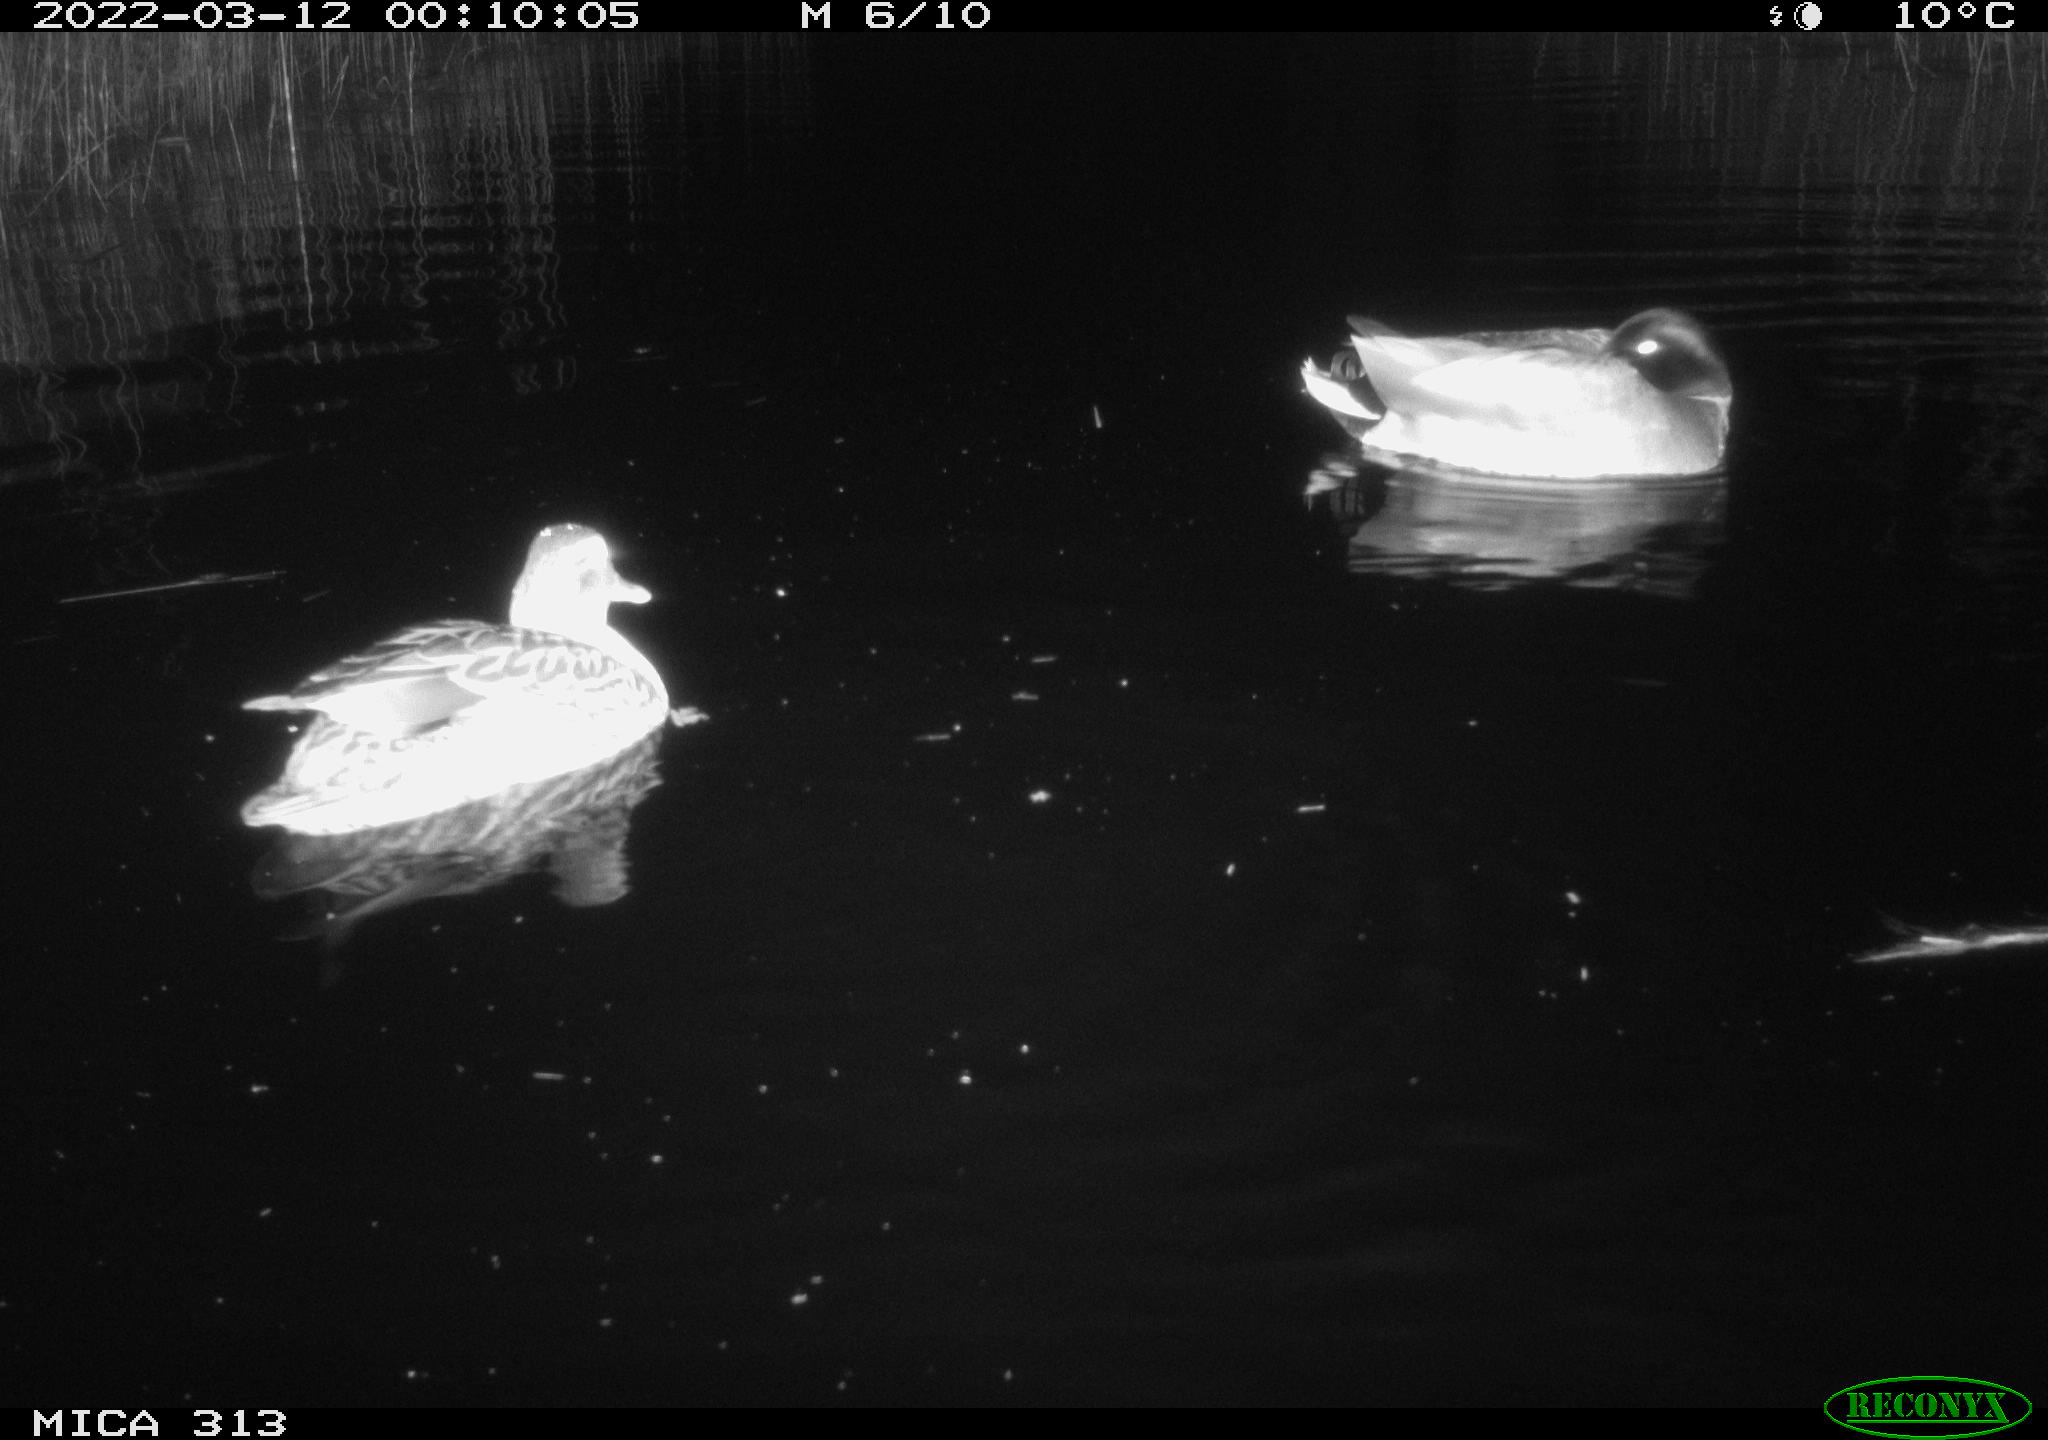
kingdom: Animalia
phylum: Chordata
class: Aves
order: Anseriformes
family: Anatidae
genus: Anas
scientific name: Anas platyrhynchos
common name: Mallard
